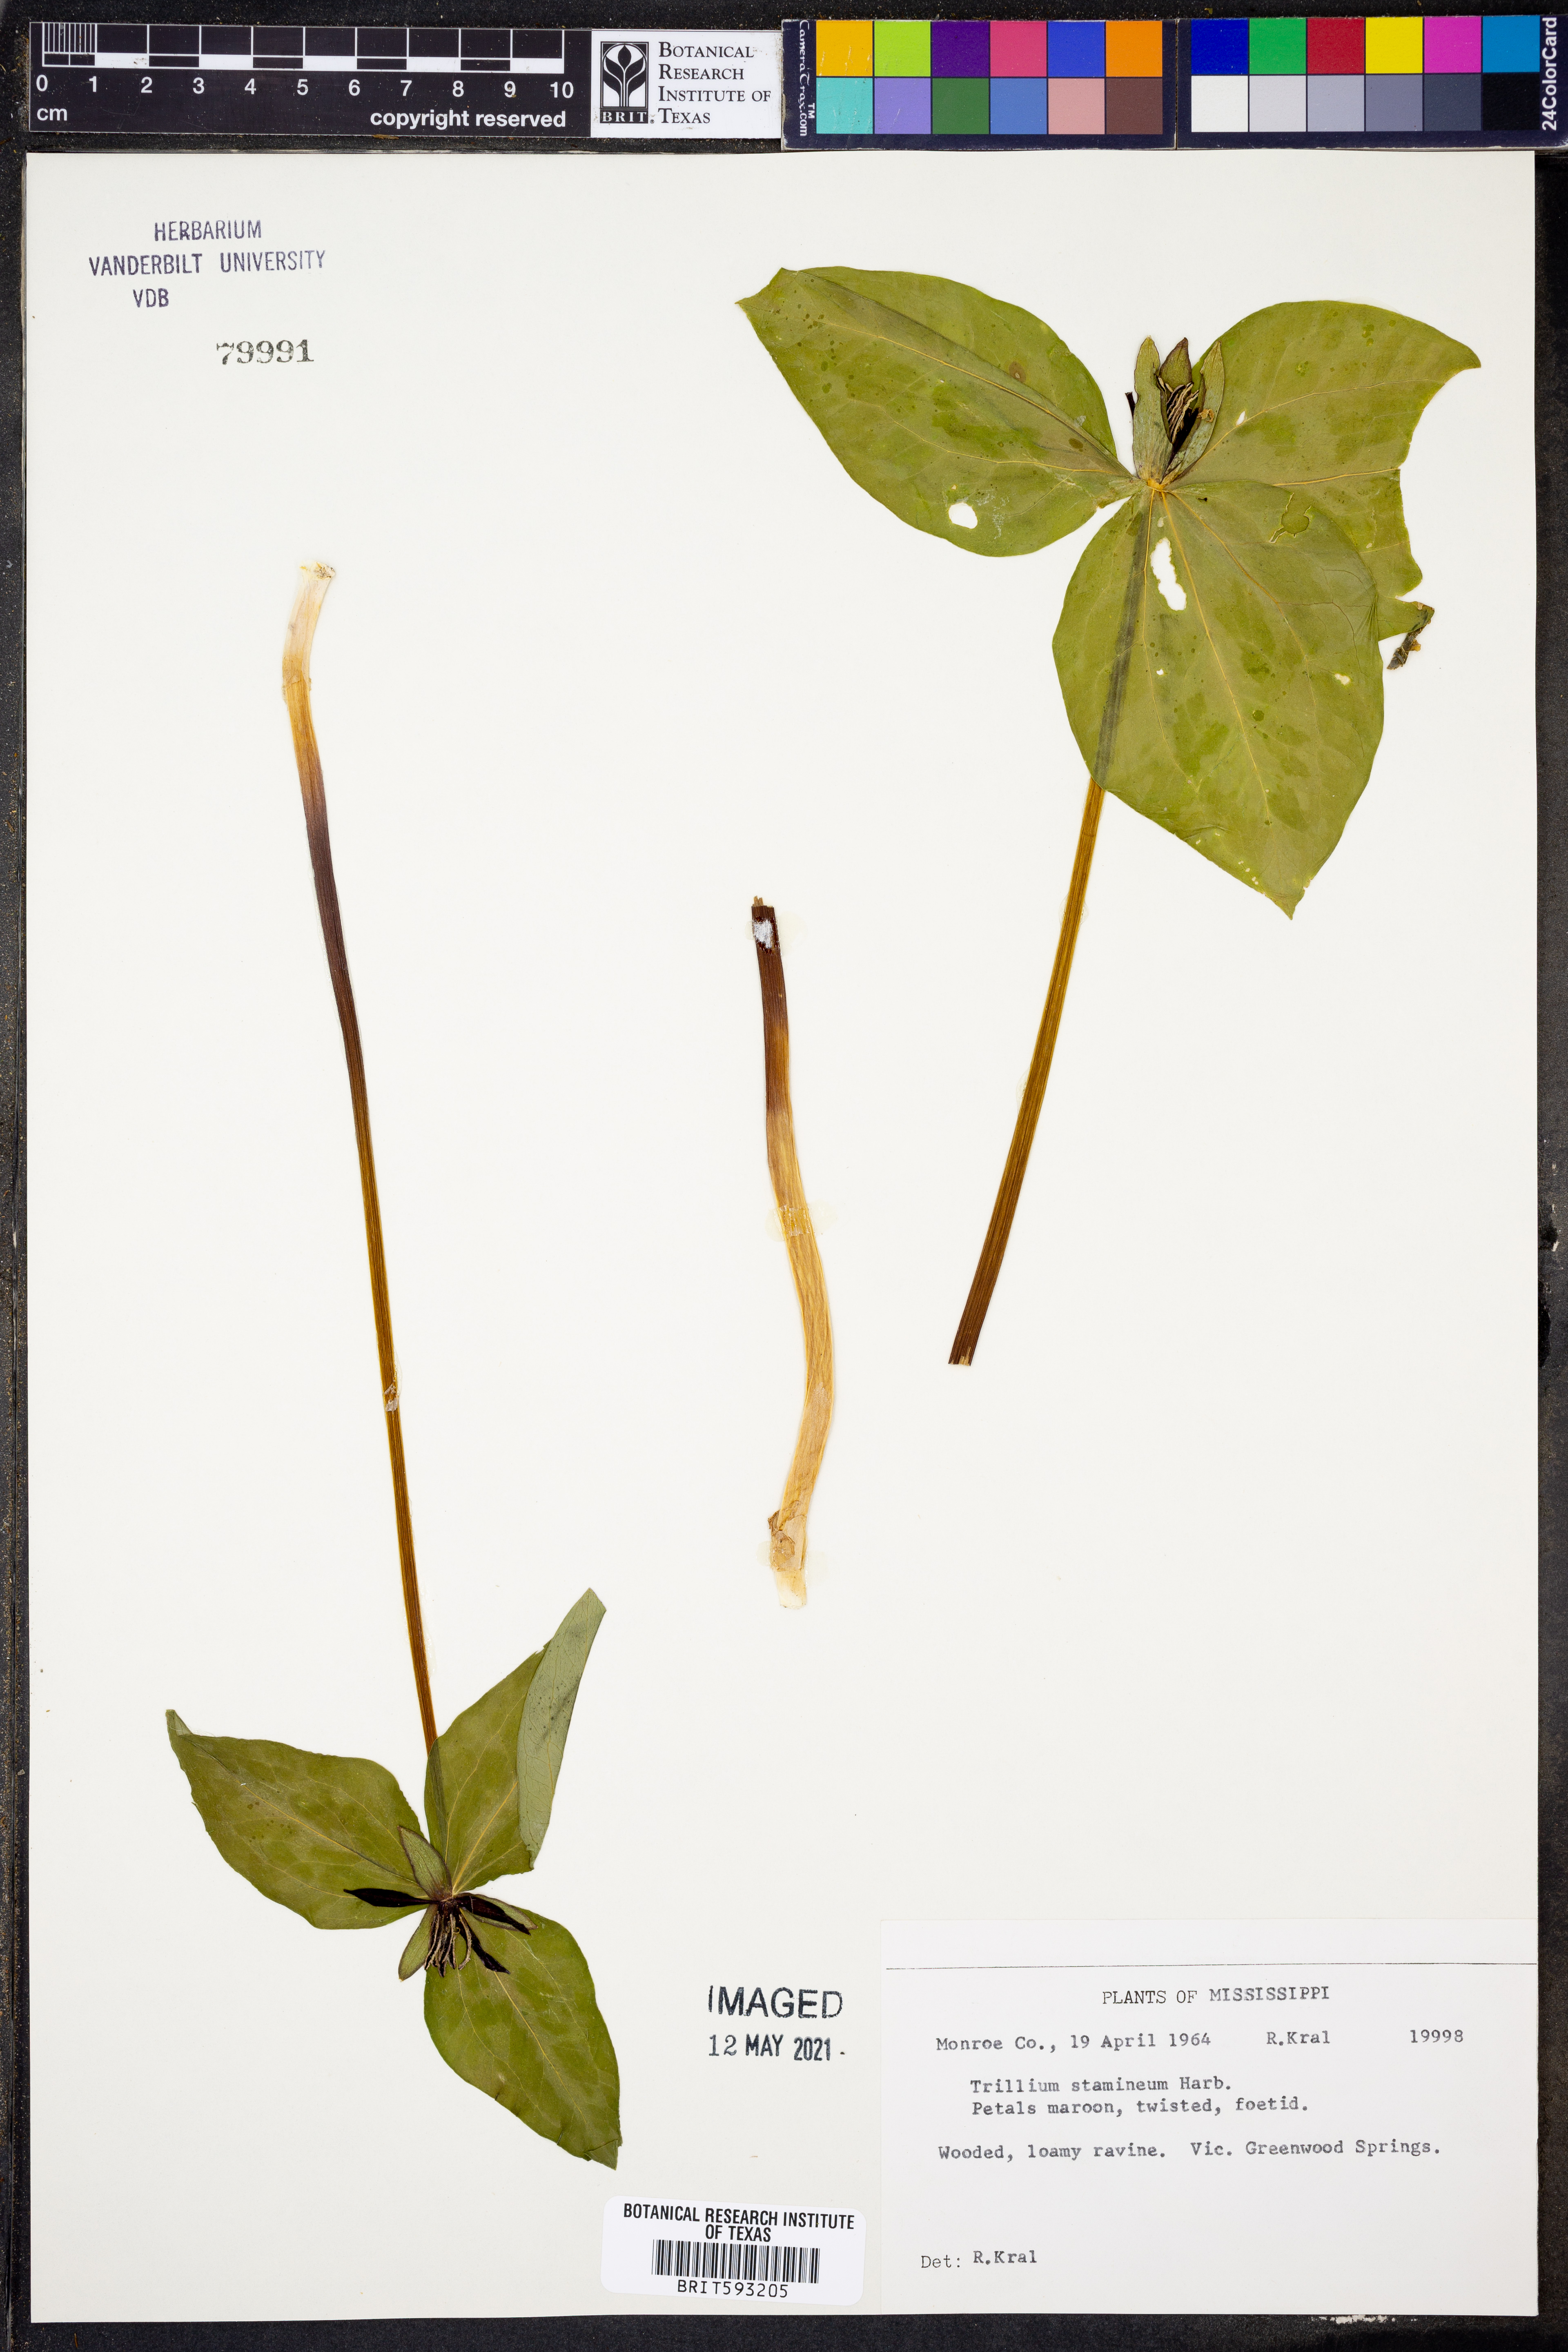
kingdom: Plantae
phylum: Tracheophyta
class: Liliopsida
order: Liliales
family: Melanthiaceae
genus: Trillium
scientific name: Trillium stamineum
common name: Blue ridge wakerobin
